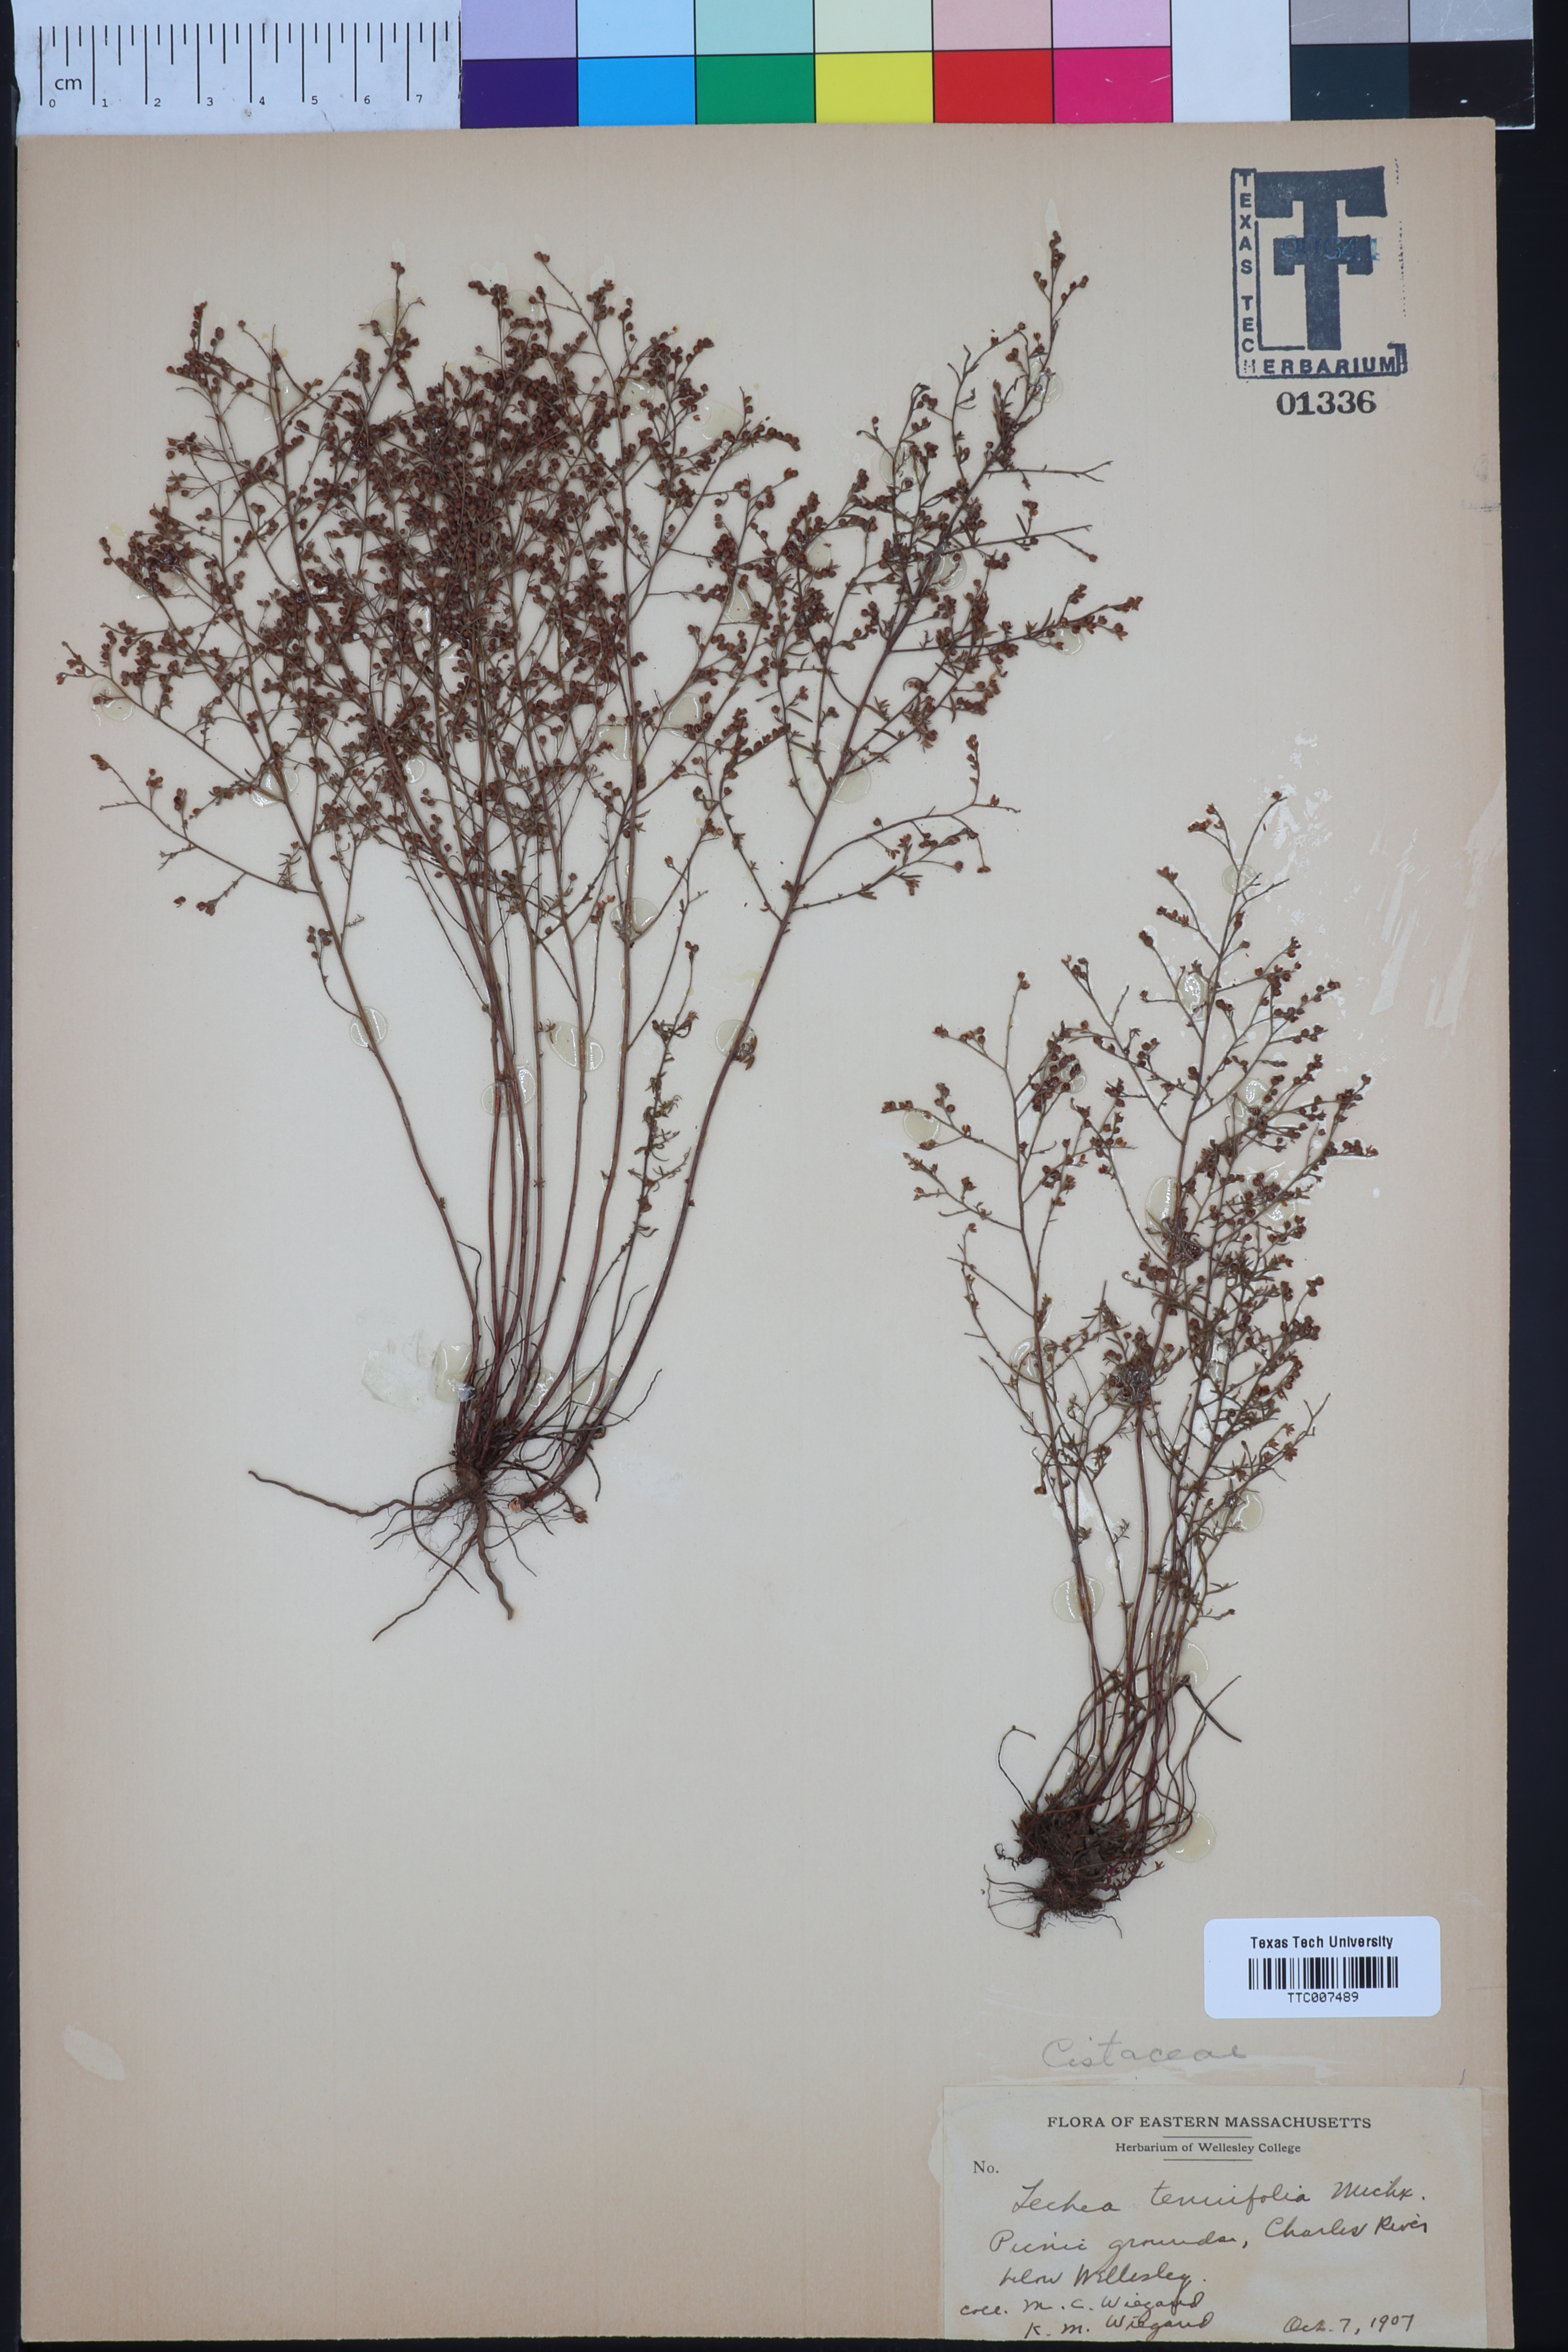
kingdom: Plantae
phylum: Tracheophyta
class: Magnoliopsida
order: Malvales
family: Cistaceae
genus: Lechea
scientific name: Lechea tenuifolia
